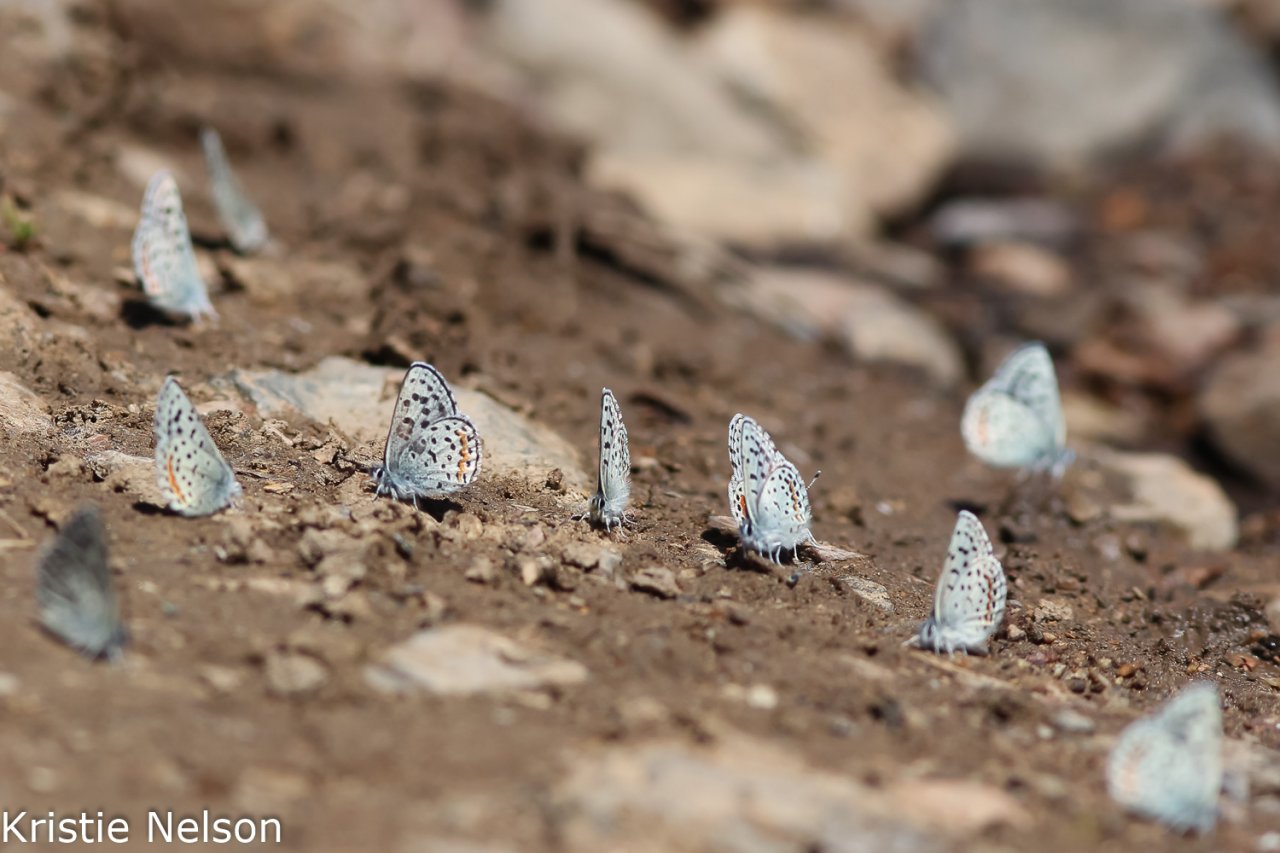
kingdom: Animalia
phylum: Arthropoda
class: Insecta
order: Lepidoptera
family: Lycaenidae
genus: Euphilotes
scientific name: Euphilotes
